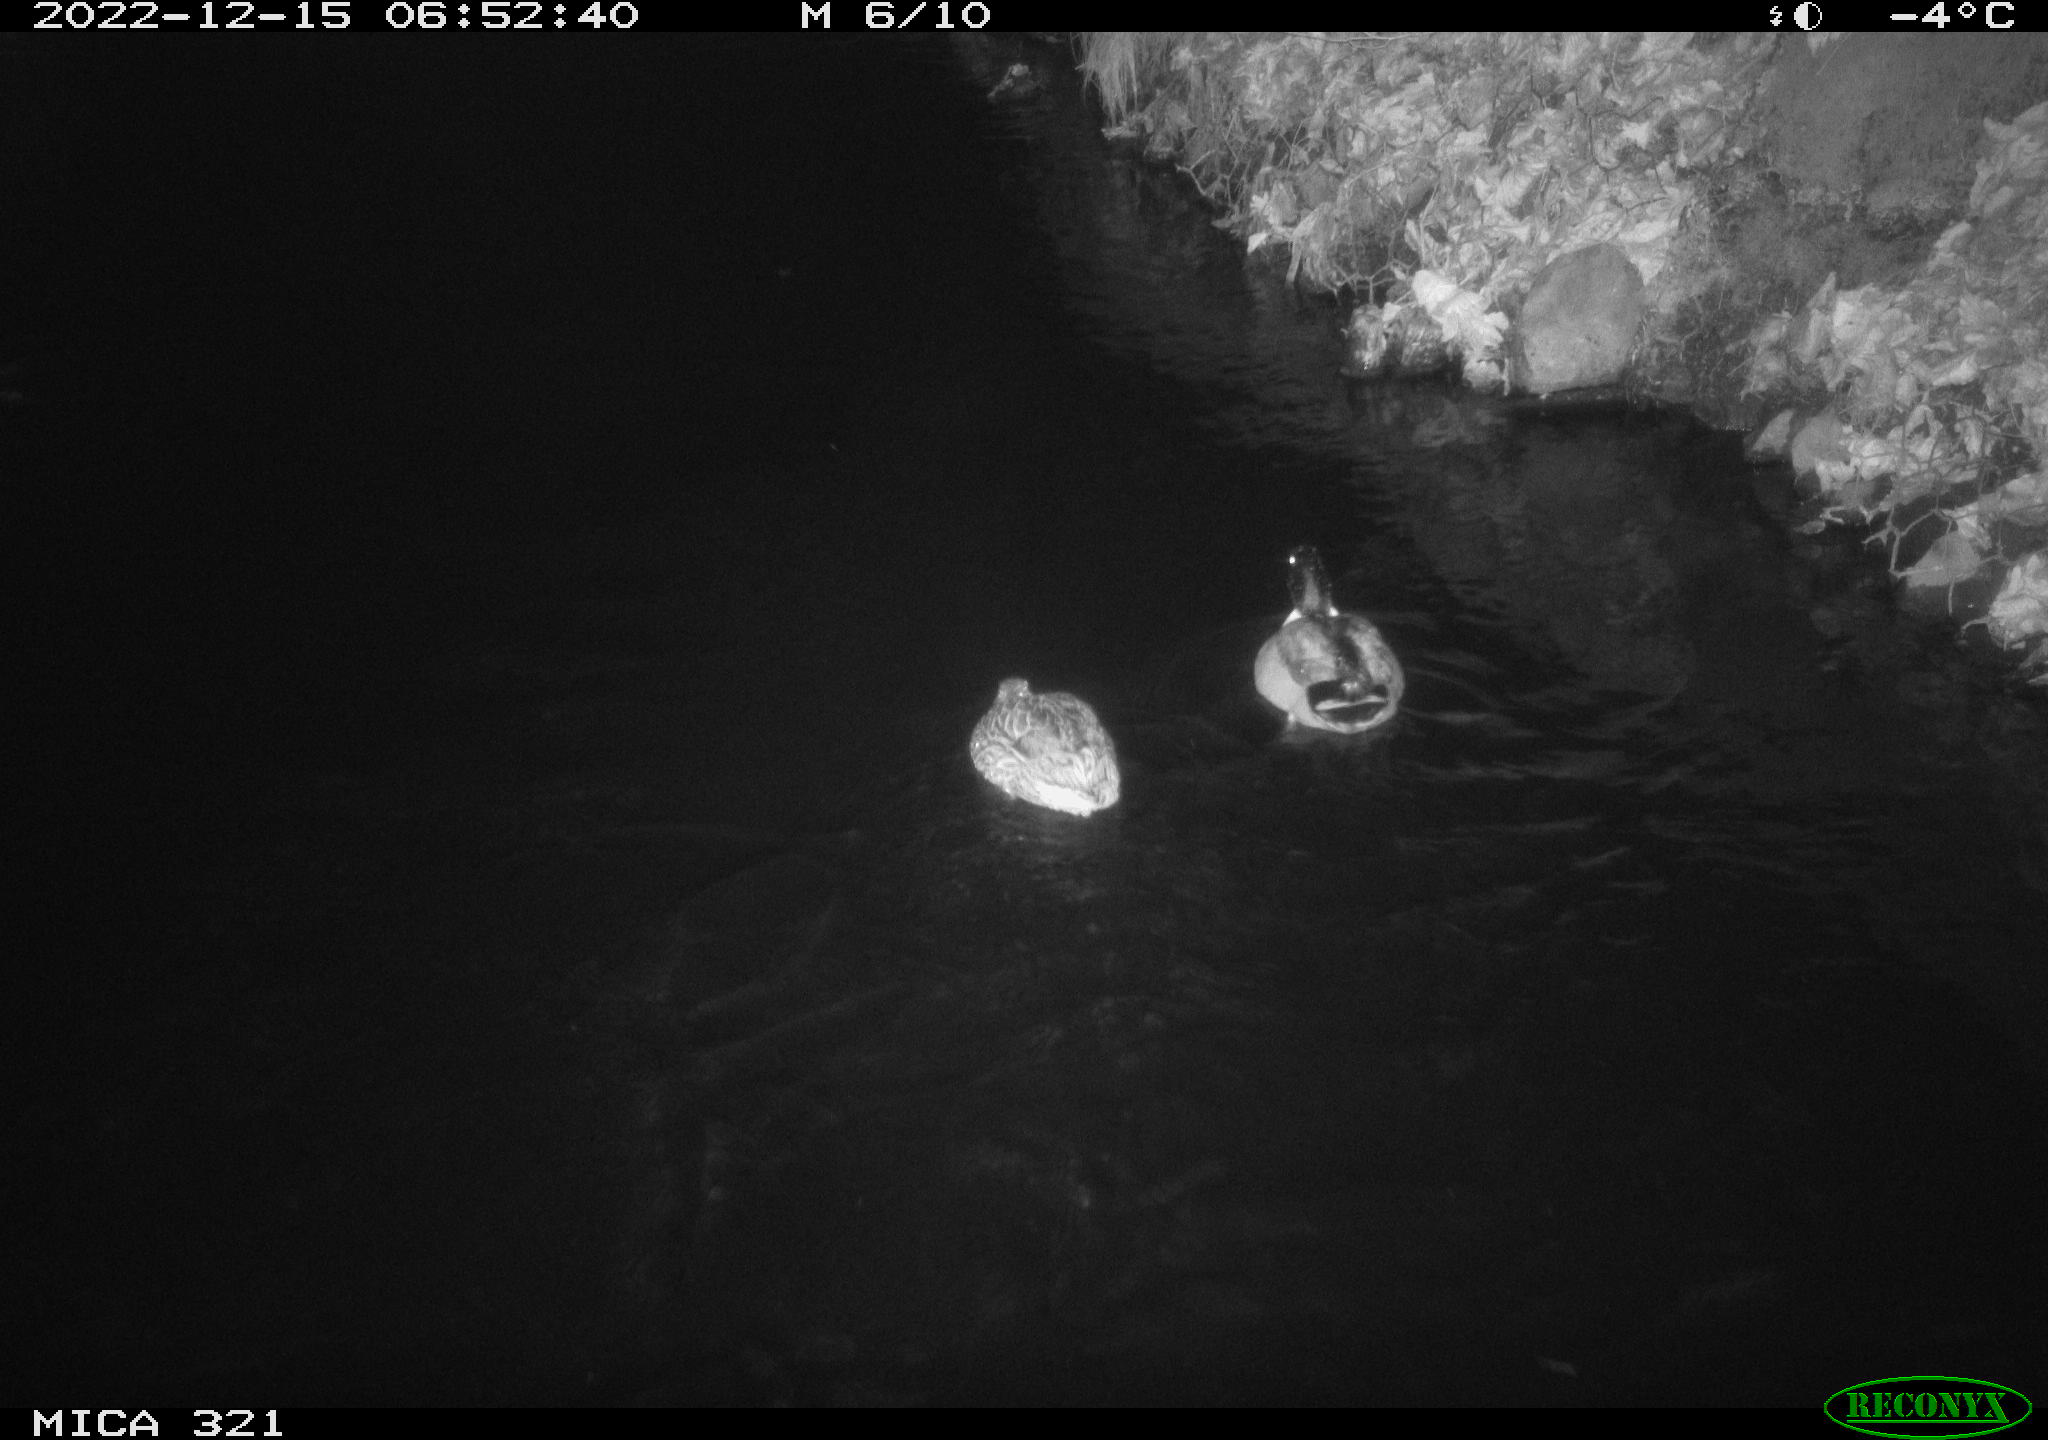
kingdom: Animalia
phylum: Chordata
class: Aves
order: Anseriformes
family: Anatidae
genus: Anas
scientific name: Anas
